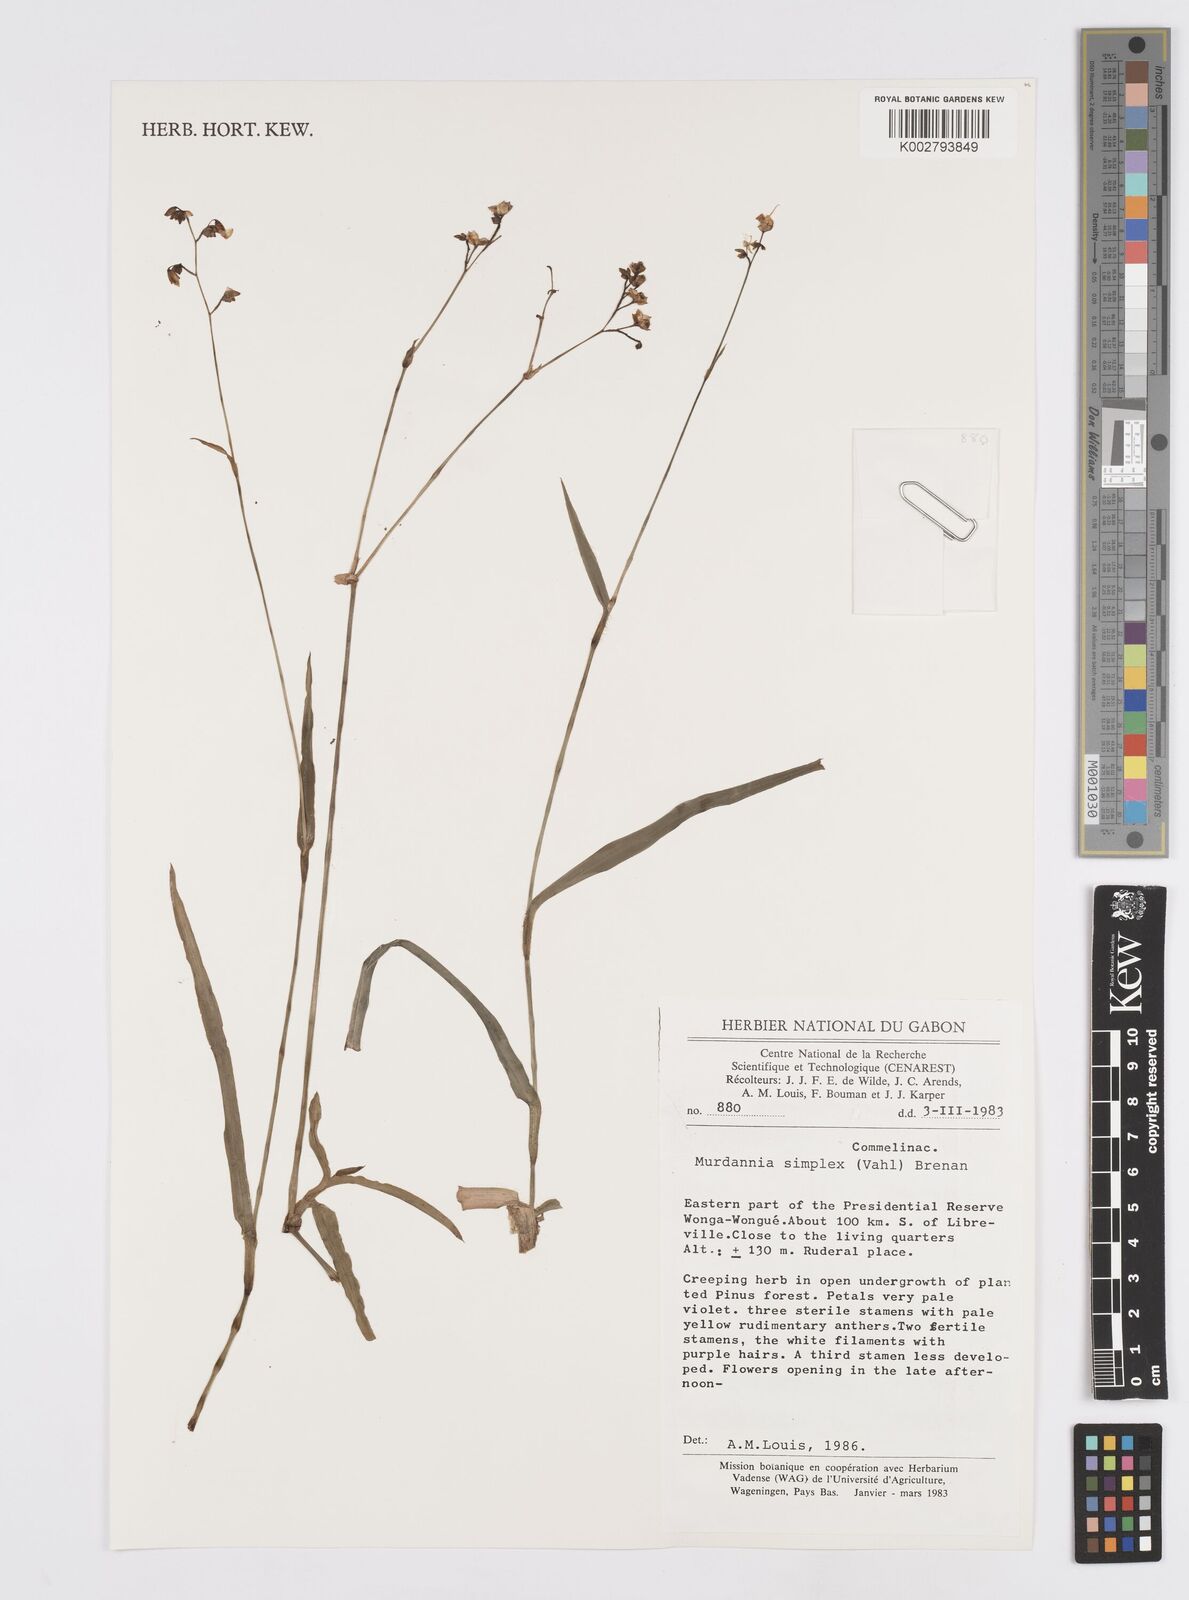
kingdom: Plantae
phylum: Tracheophyta
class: Liliopsida
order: Commelinales
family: Commelinaceae
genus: Murdannia
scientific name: Murdannia simplex
